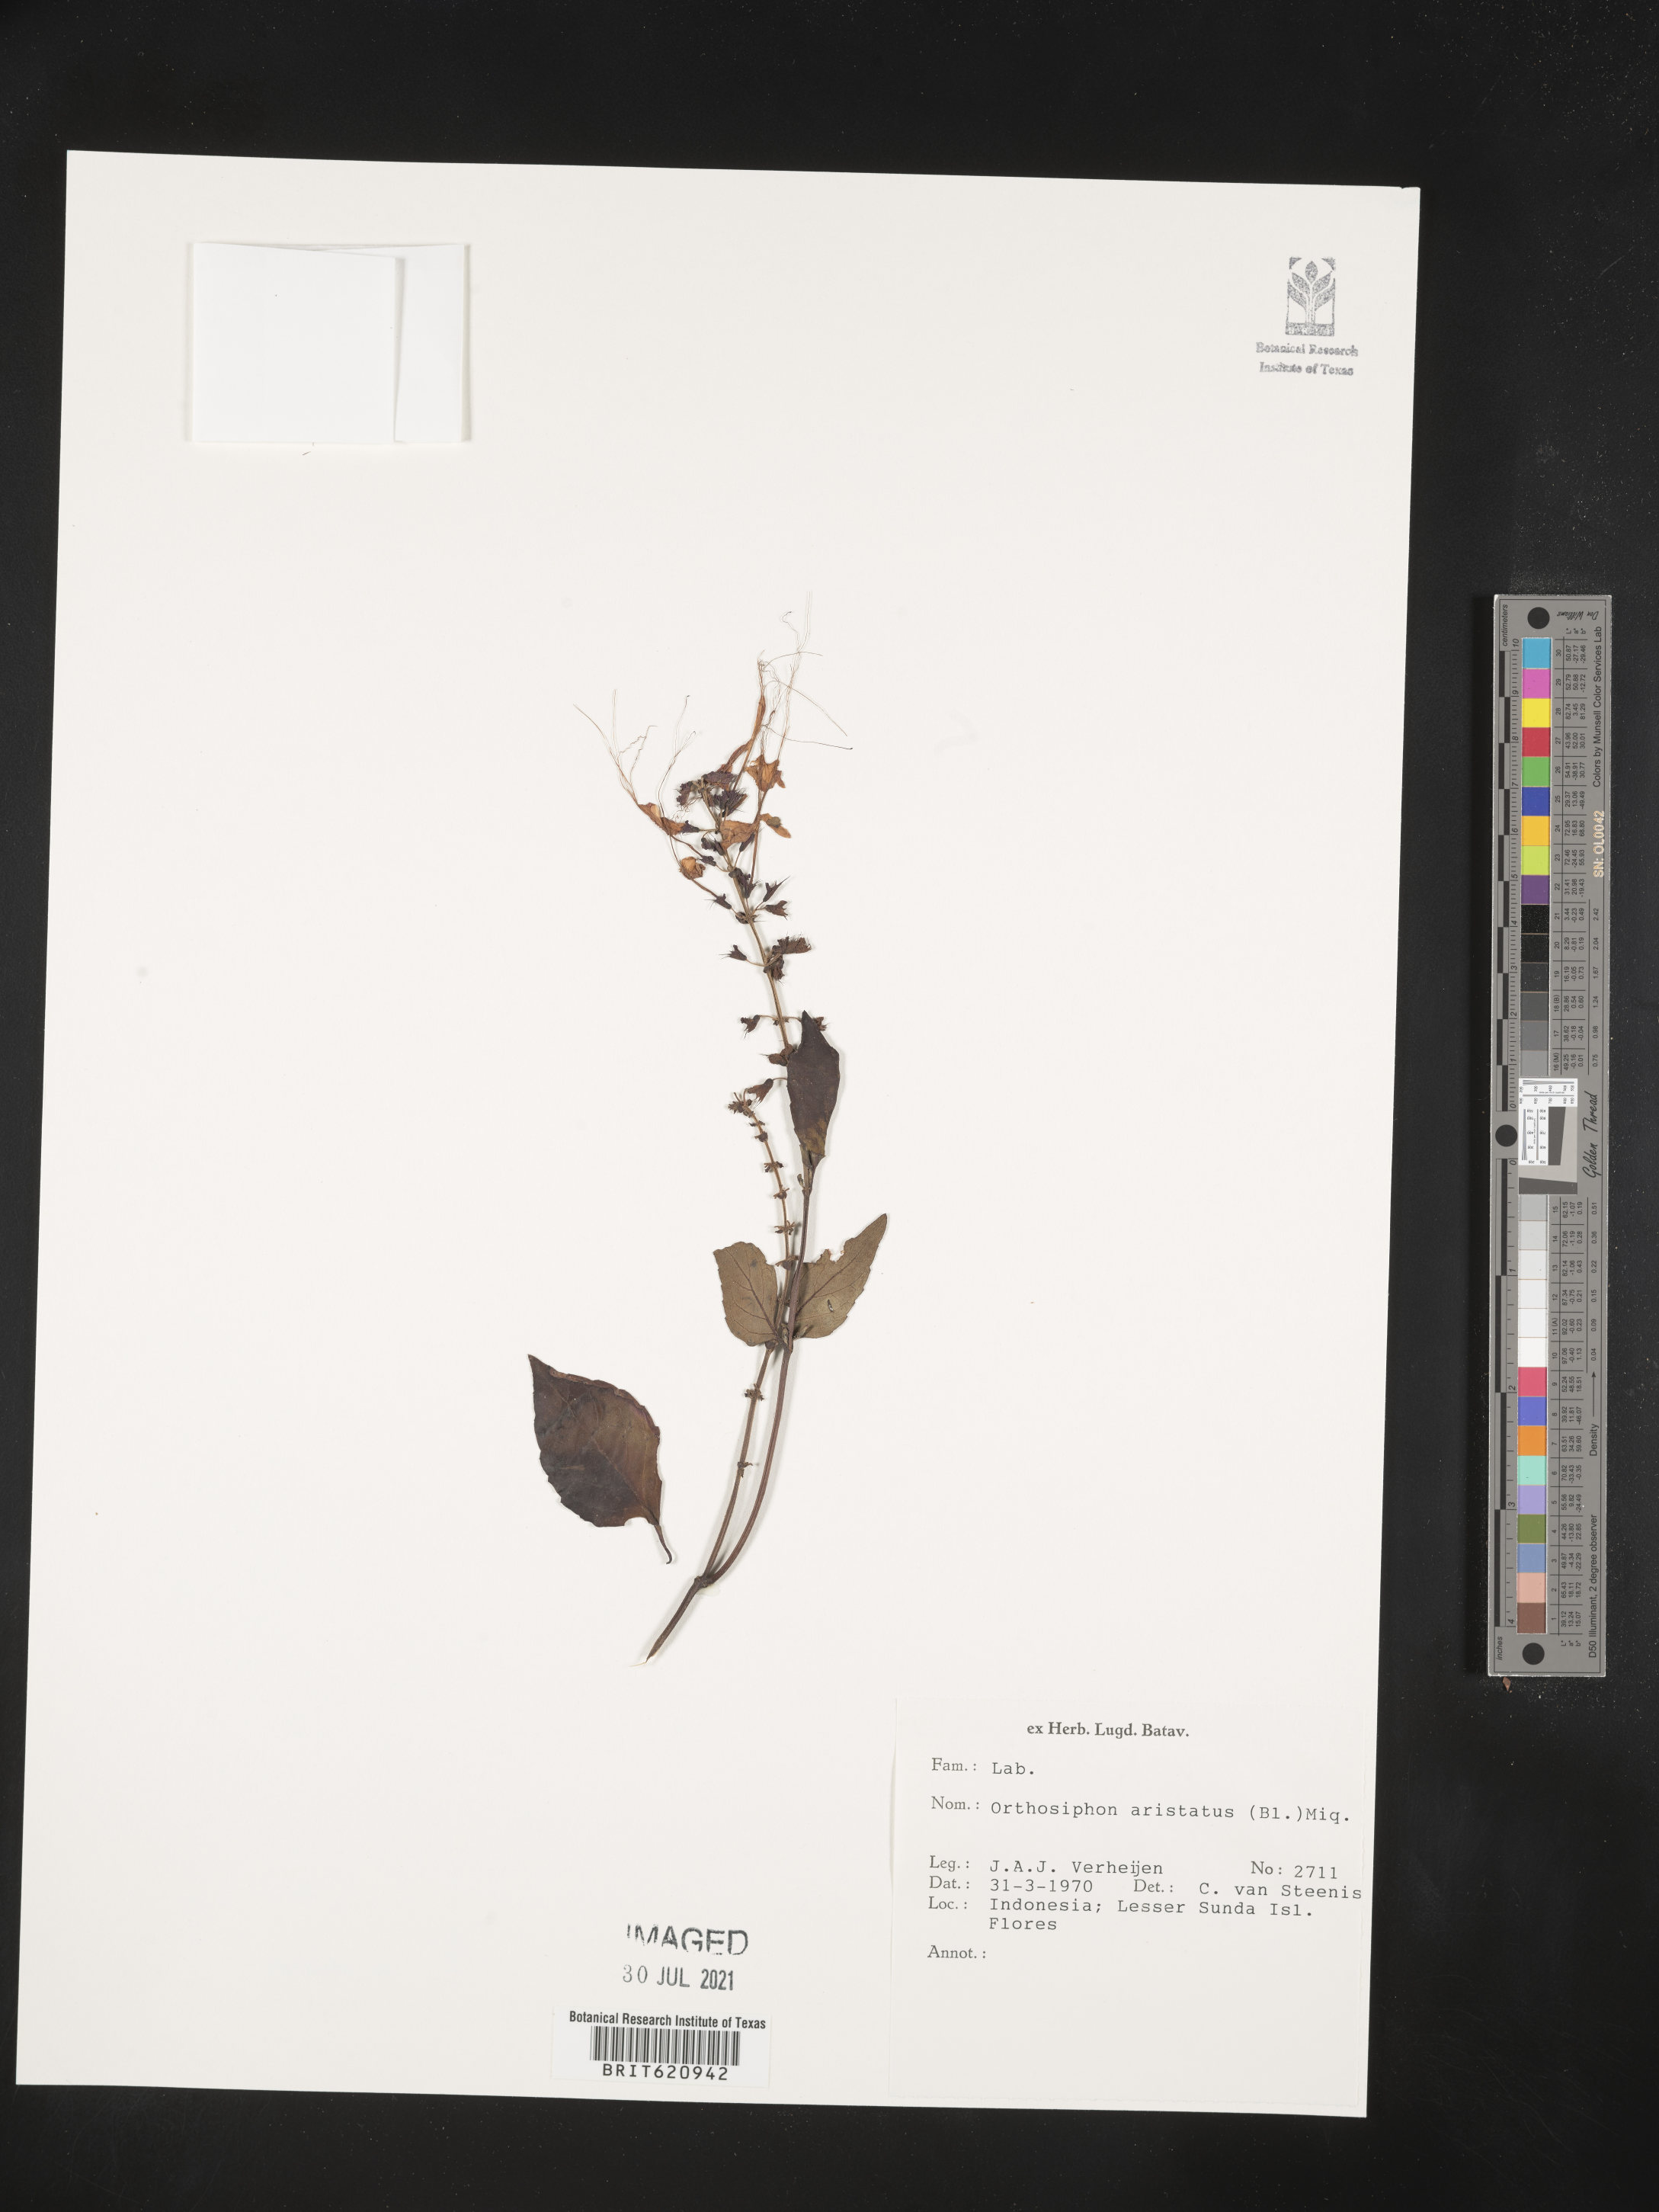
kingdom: Plantae
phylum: Tracheophyta
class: Magnoliopsida
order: Lamiales
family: Lamiaceae
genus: Orthosiphon
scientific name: Orthosiphon aristatus
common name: Whiskerplant
